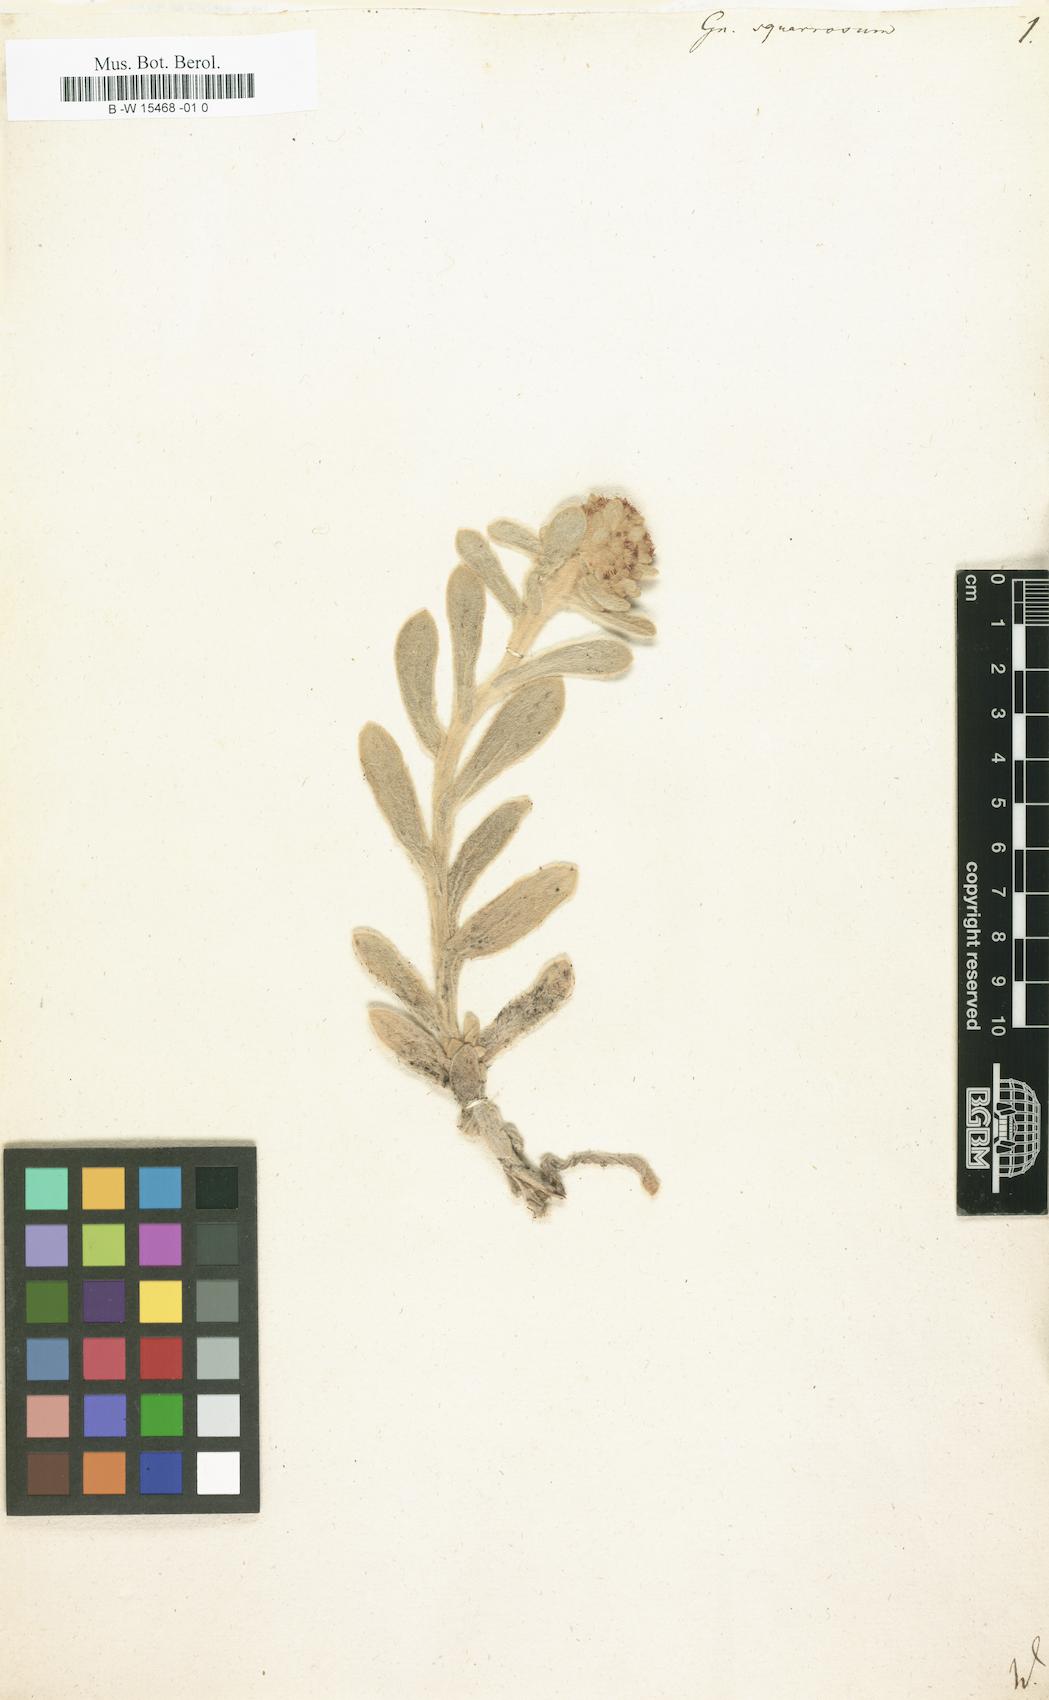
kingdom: Plantae
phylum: Tracheophyta
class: Magnoliopsida
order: Asterales
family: Asteraceae
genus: Helichrysum
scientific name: Helichrysum spiralepis
